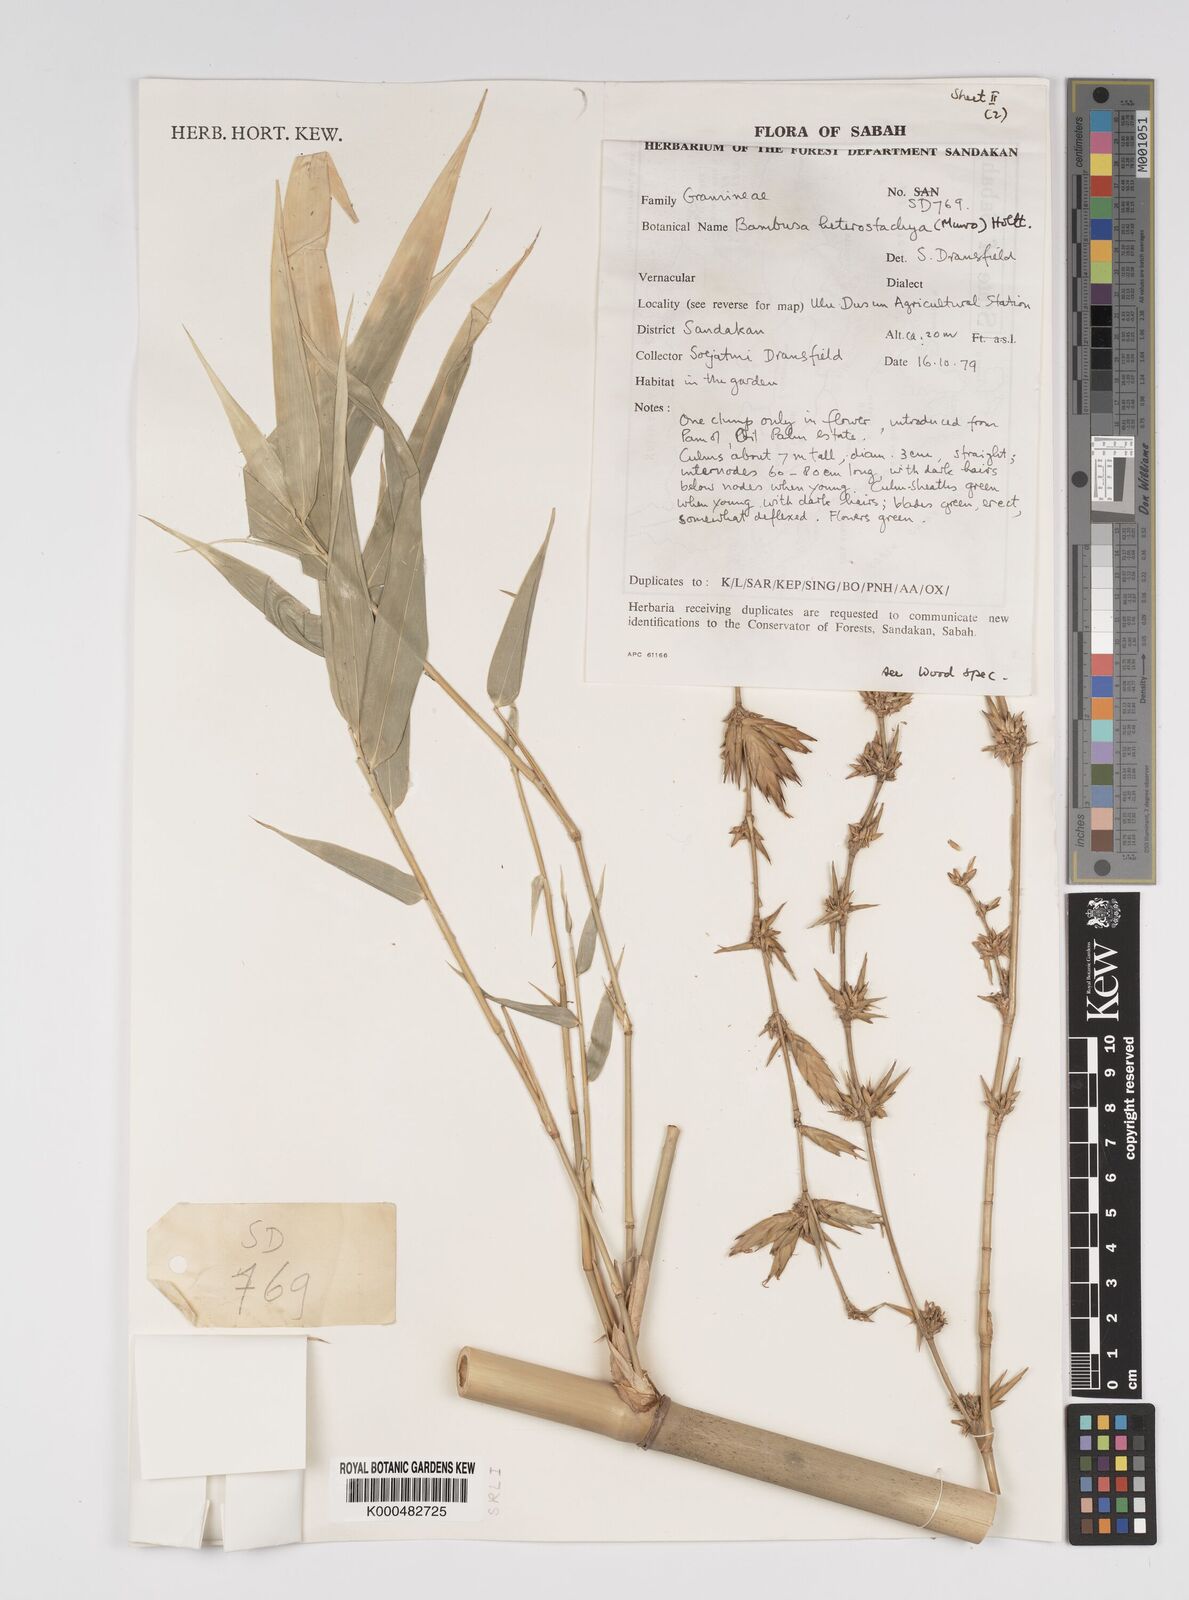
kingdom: Plantae
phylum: Tracheophyta
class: Liliopsida
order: Poales
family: Poaceae
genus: Bambusa
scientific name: Bambusa
